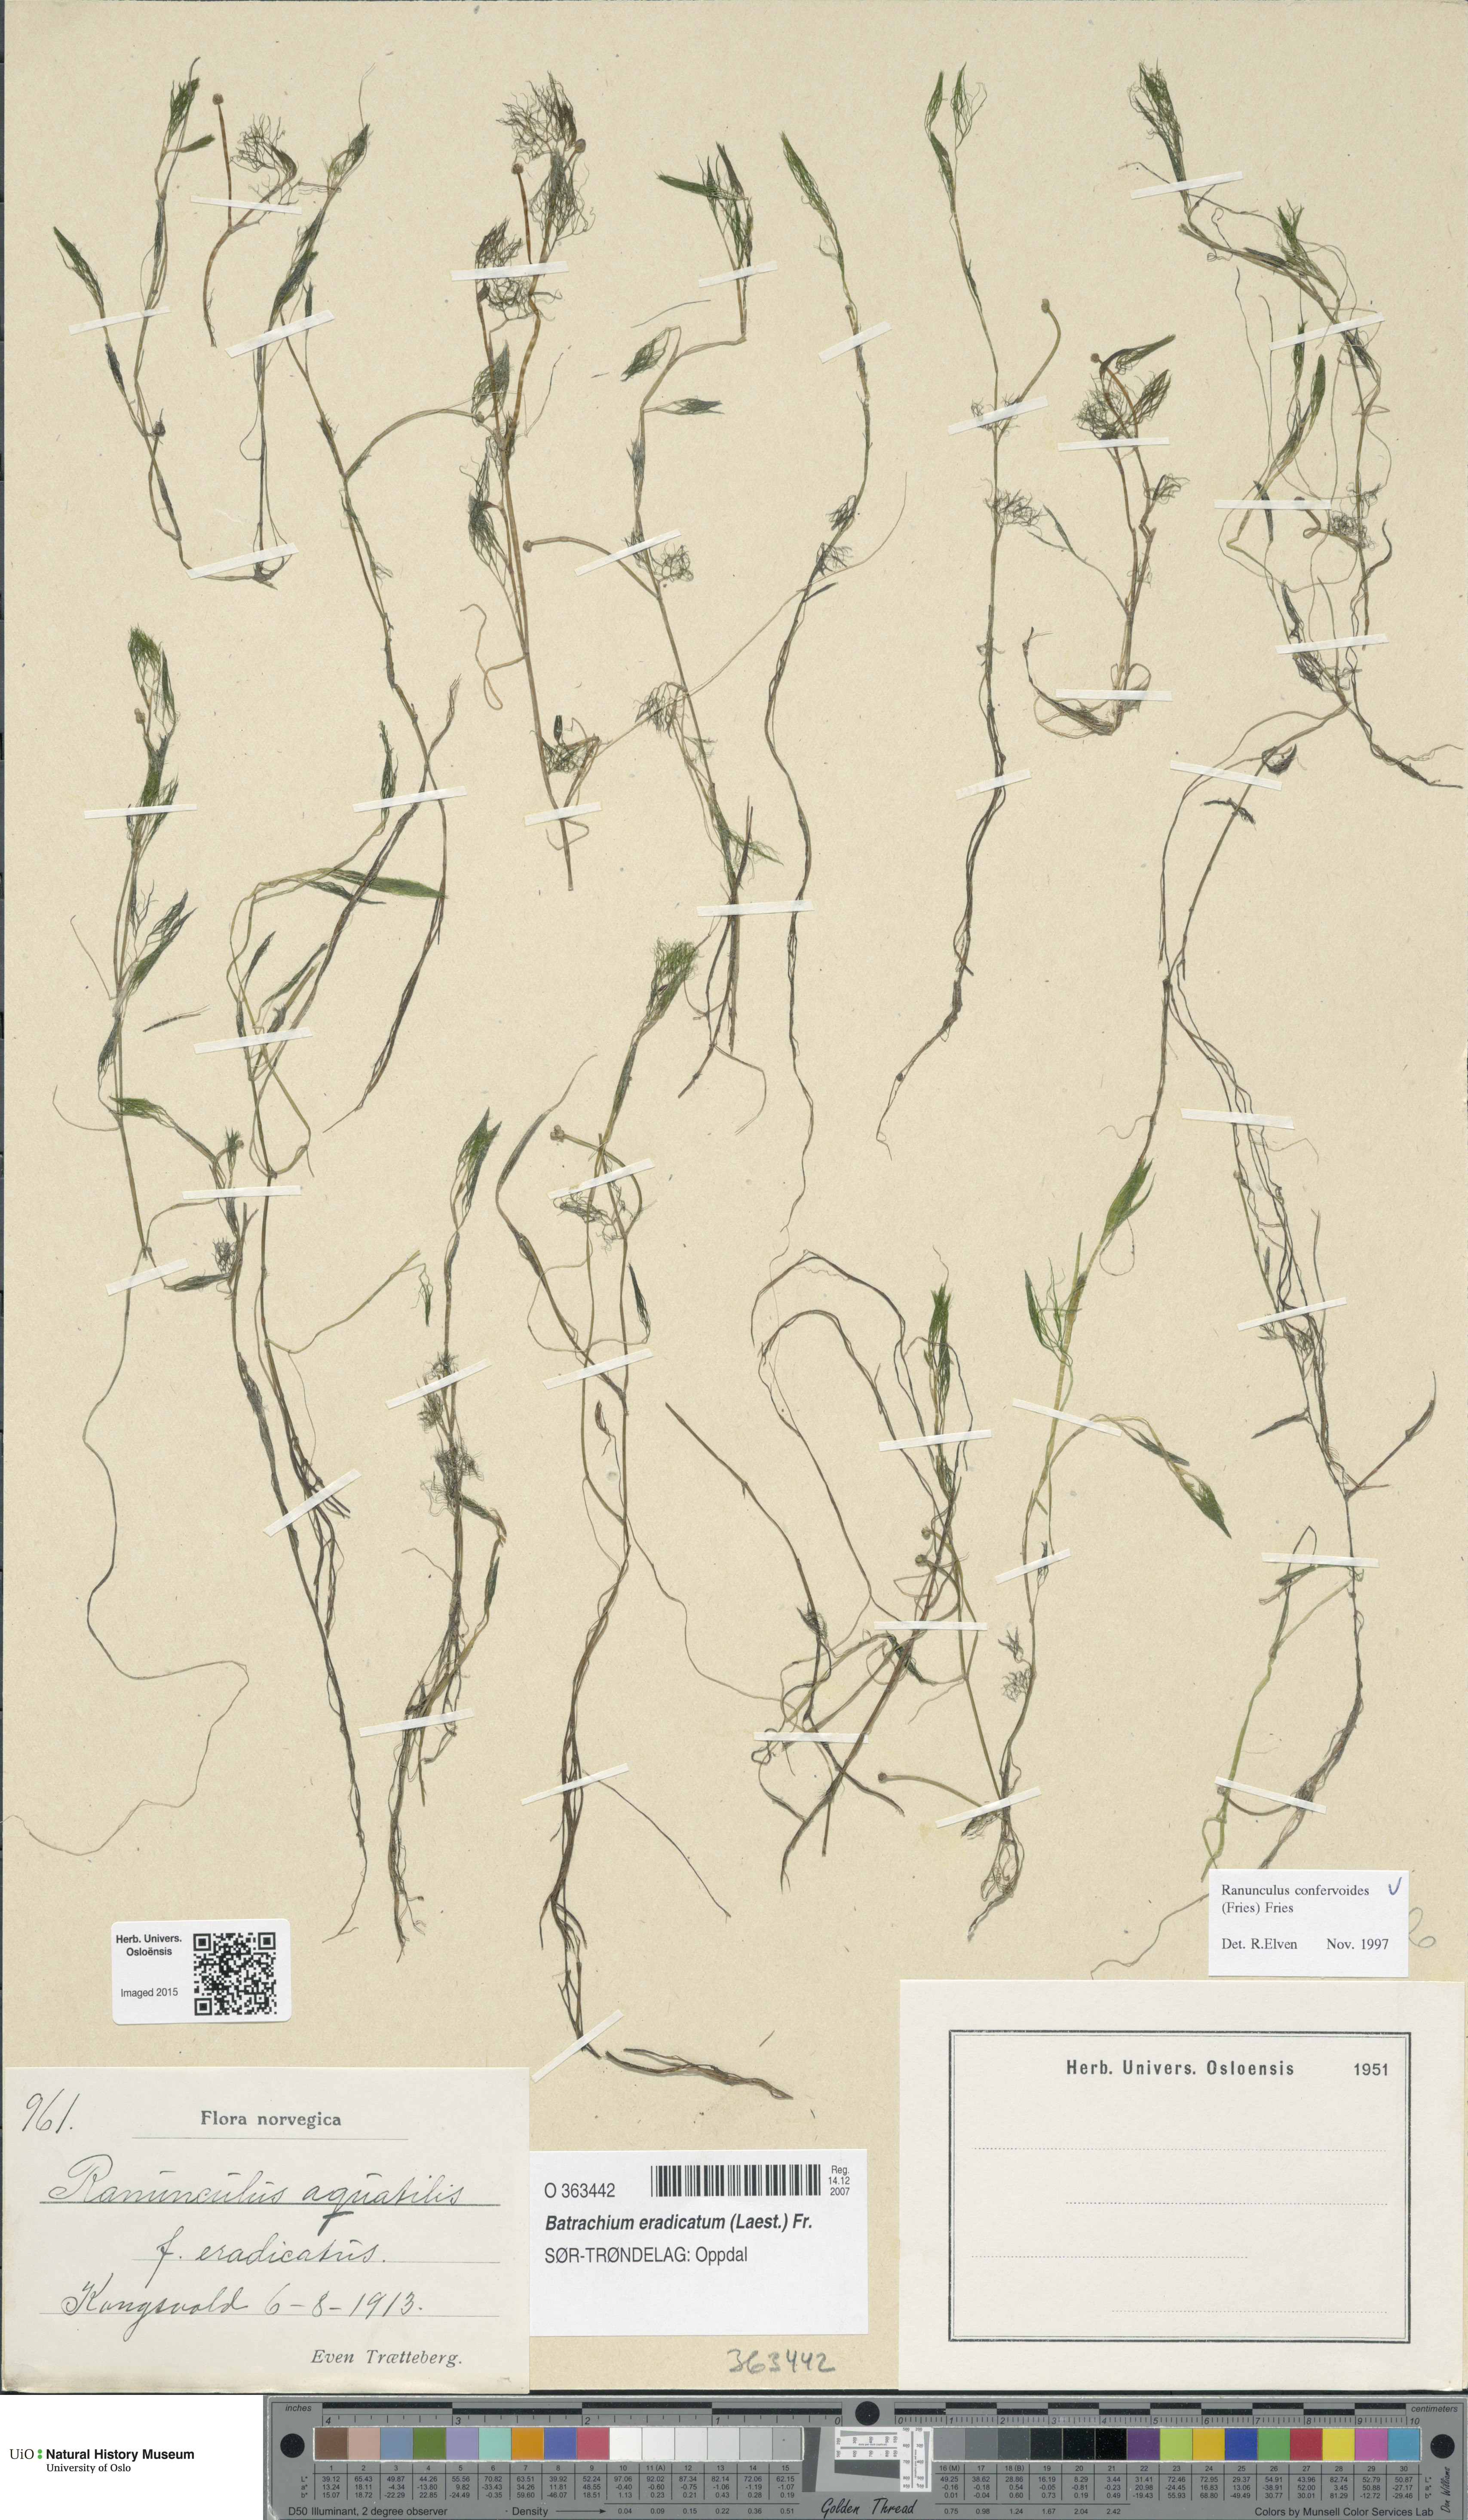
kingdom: Plantae
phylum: Tracheophyta
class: Magnoliopsida
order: Ranunculales
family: Ranunculaceae
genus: Ranunculus
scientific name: Ranunculus confervoides
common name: Delicate buttercup
